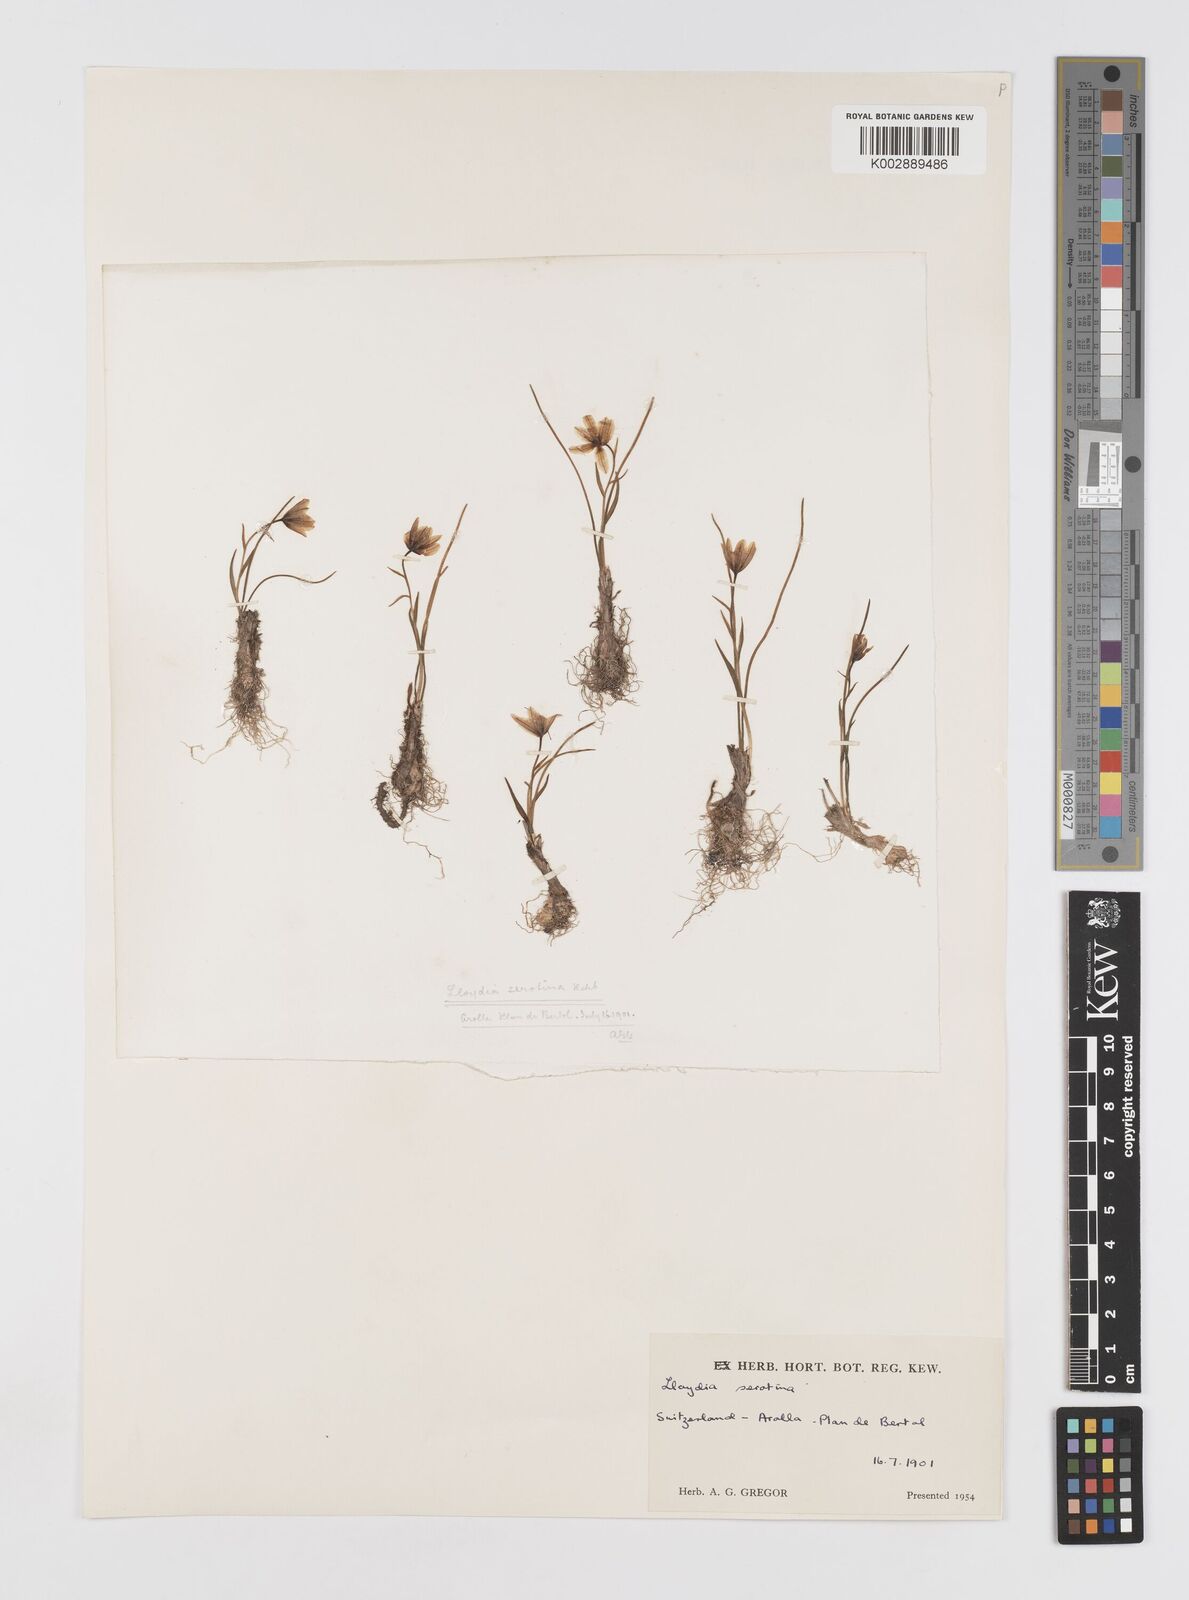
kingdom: Plantae
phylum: Tracheophyta
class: Liliopsida
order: Liliales
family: Liliaceae
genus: Gagea
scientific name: Gagea
